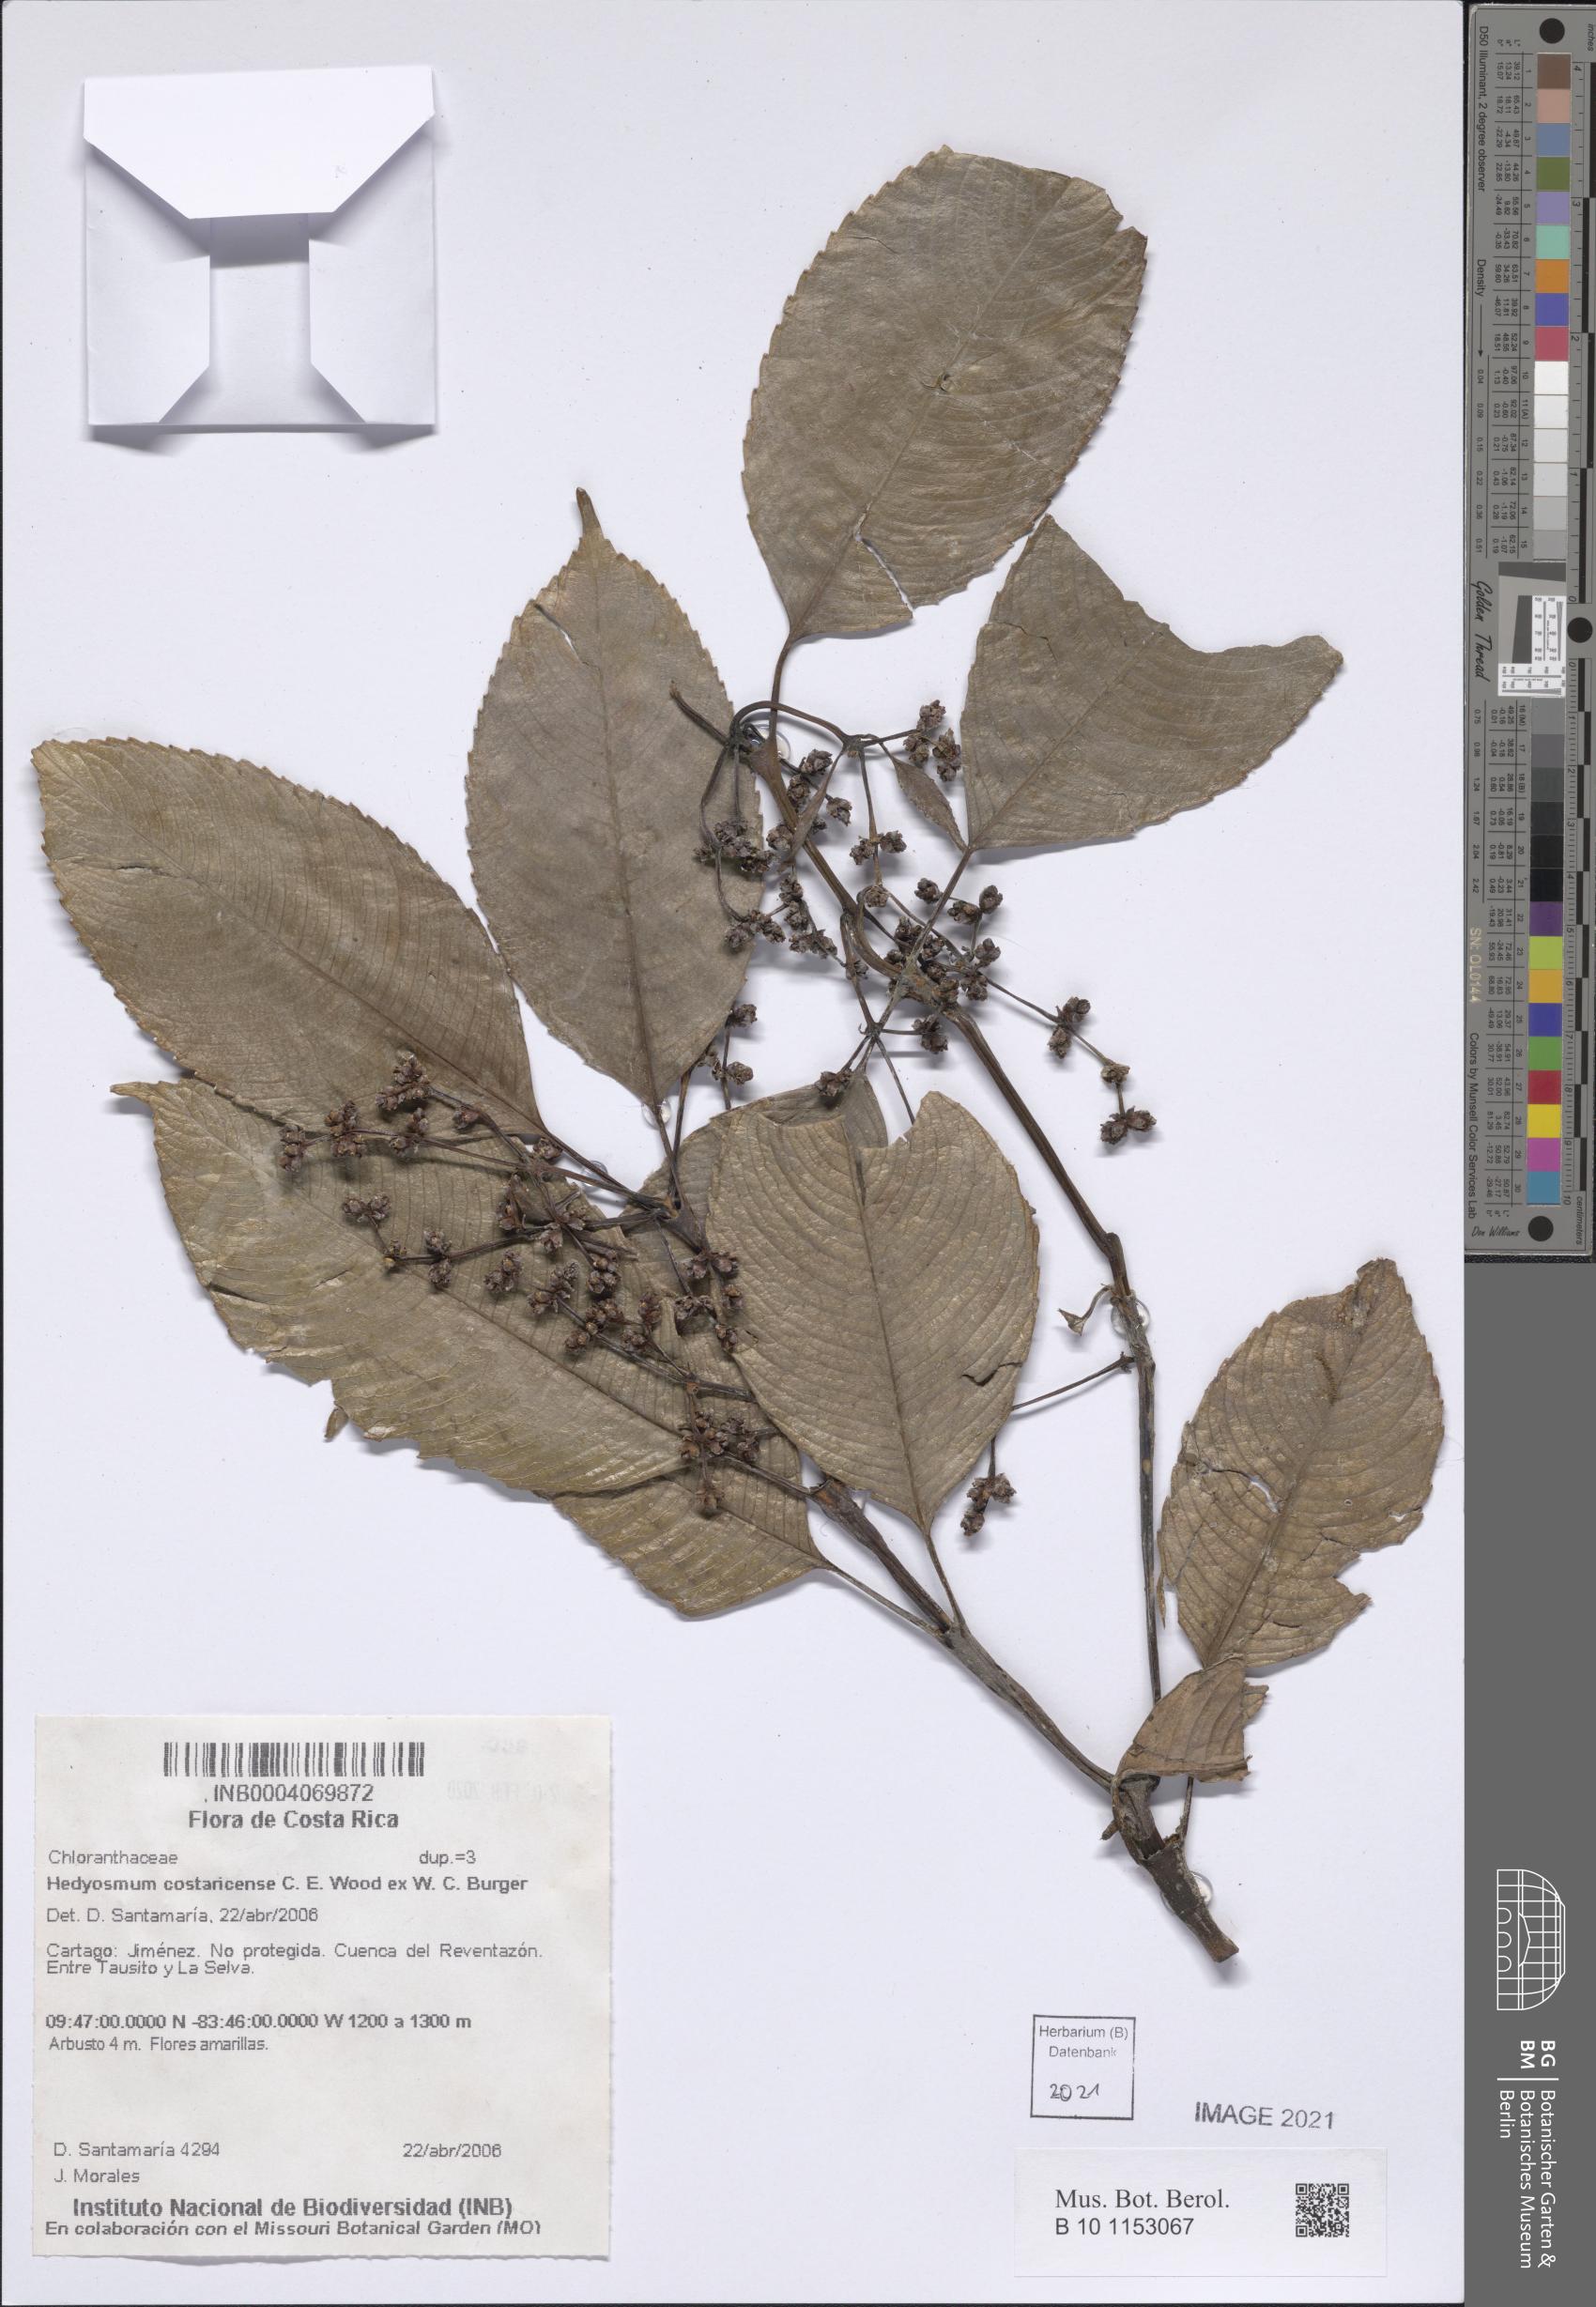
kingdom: Plantae
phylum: Tracheophyta
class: Magnoliopsida
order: Chloranthales
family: Chloranthaceae
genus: Hedyosmum
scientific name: Hedyosmum costaricense
